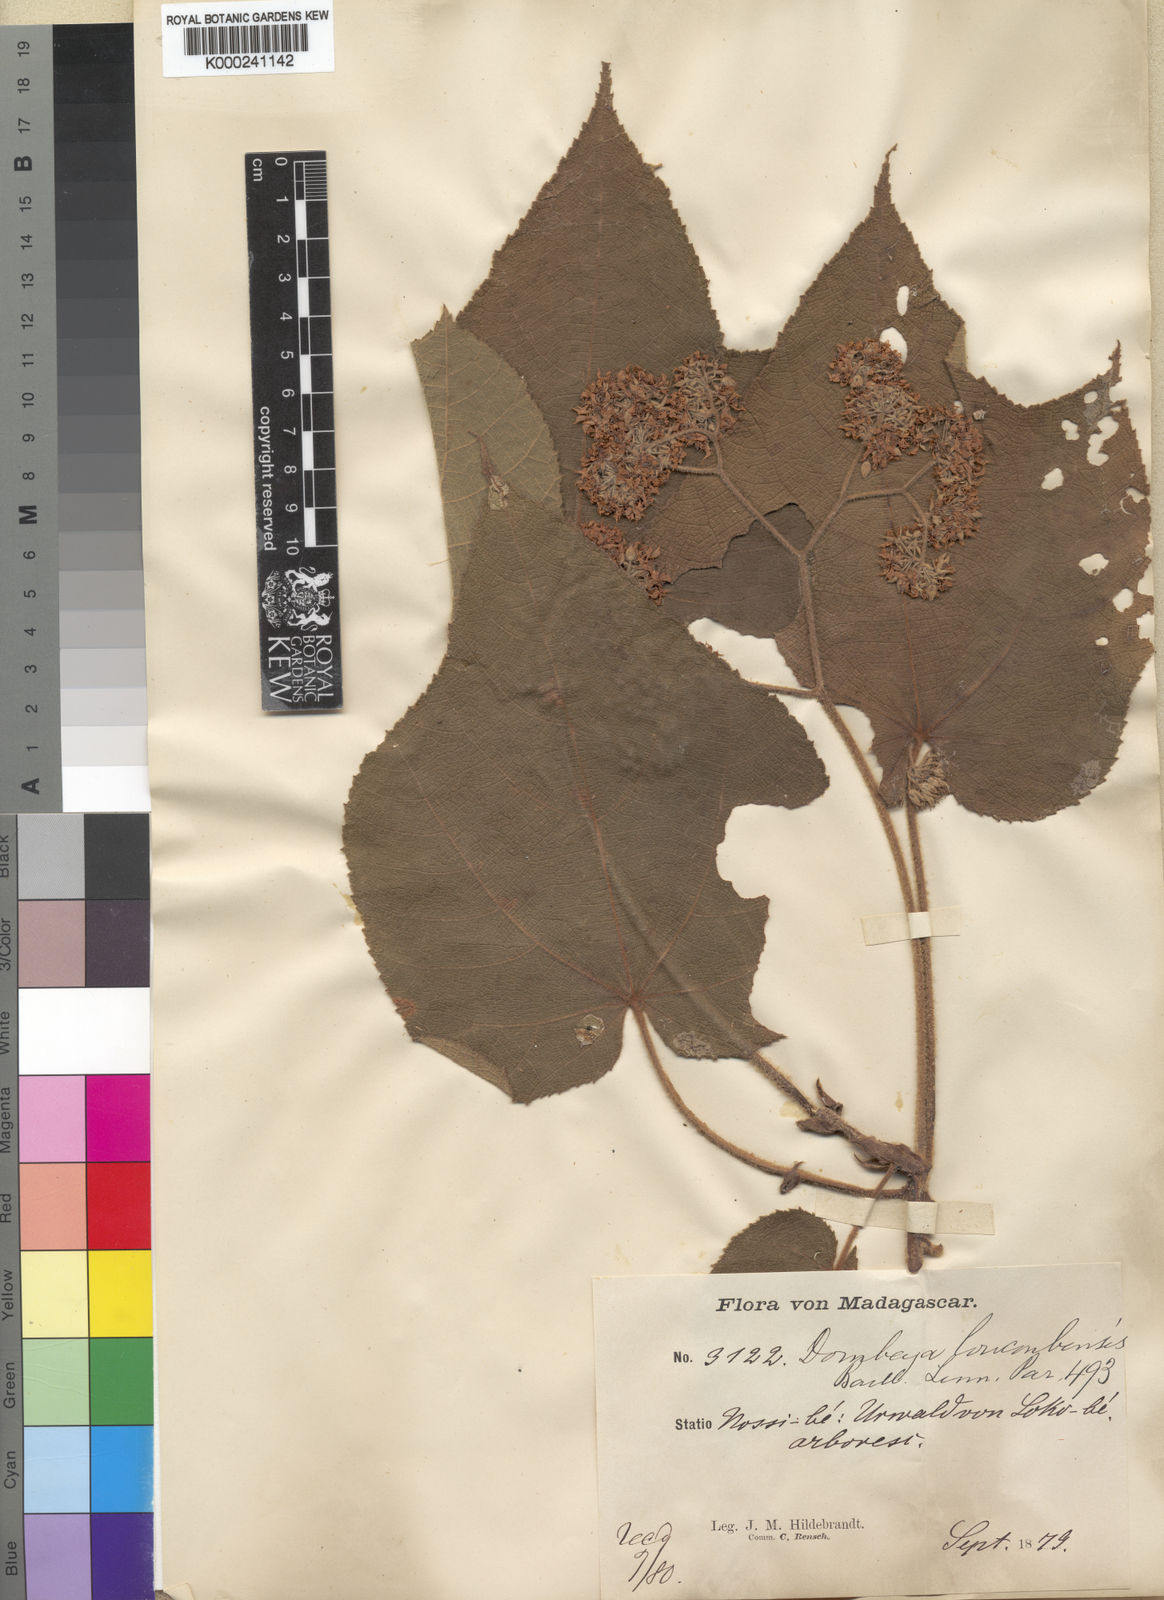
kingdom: Plantae
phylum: Tracheophyta
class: Magnoliopsida
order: Malvales
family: Malvaceae
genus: Dombeya
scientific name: Dombeya mollis
